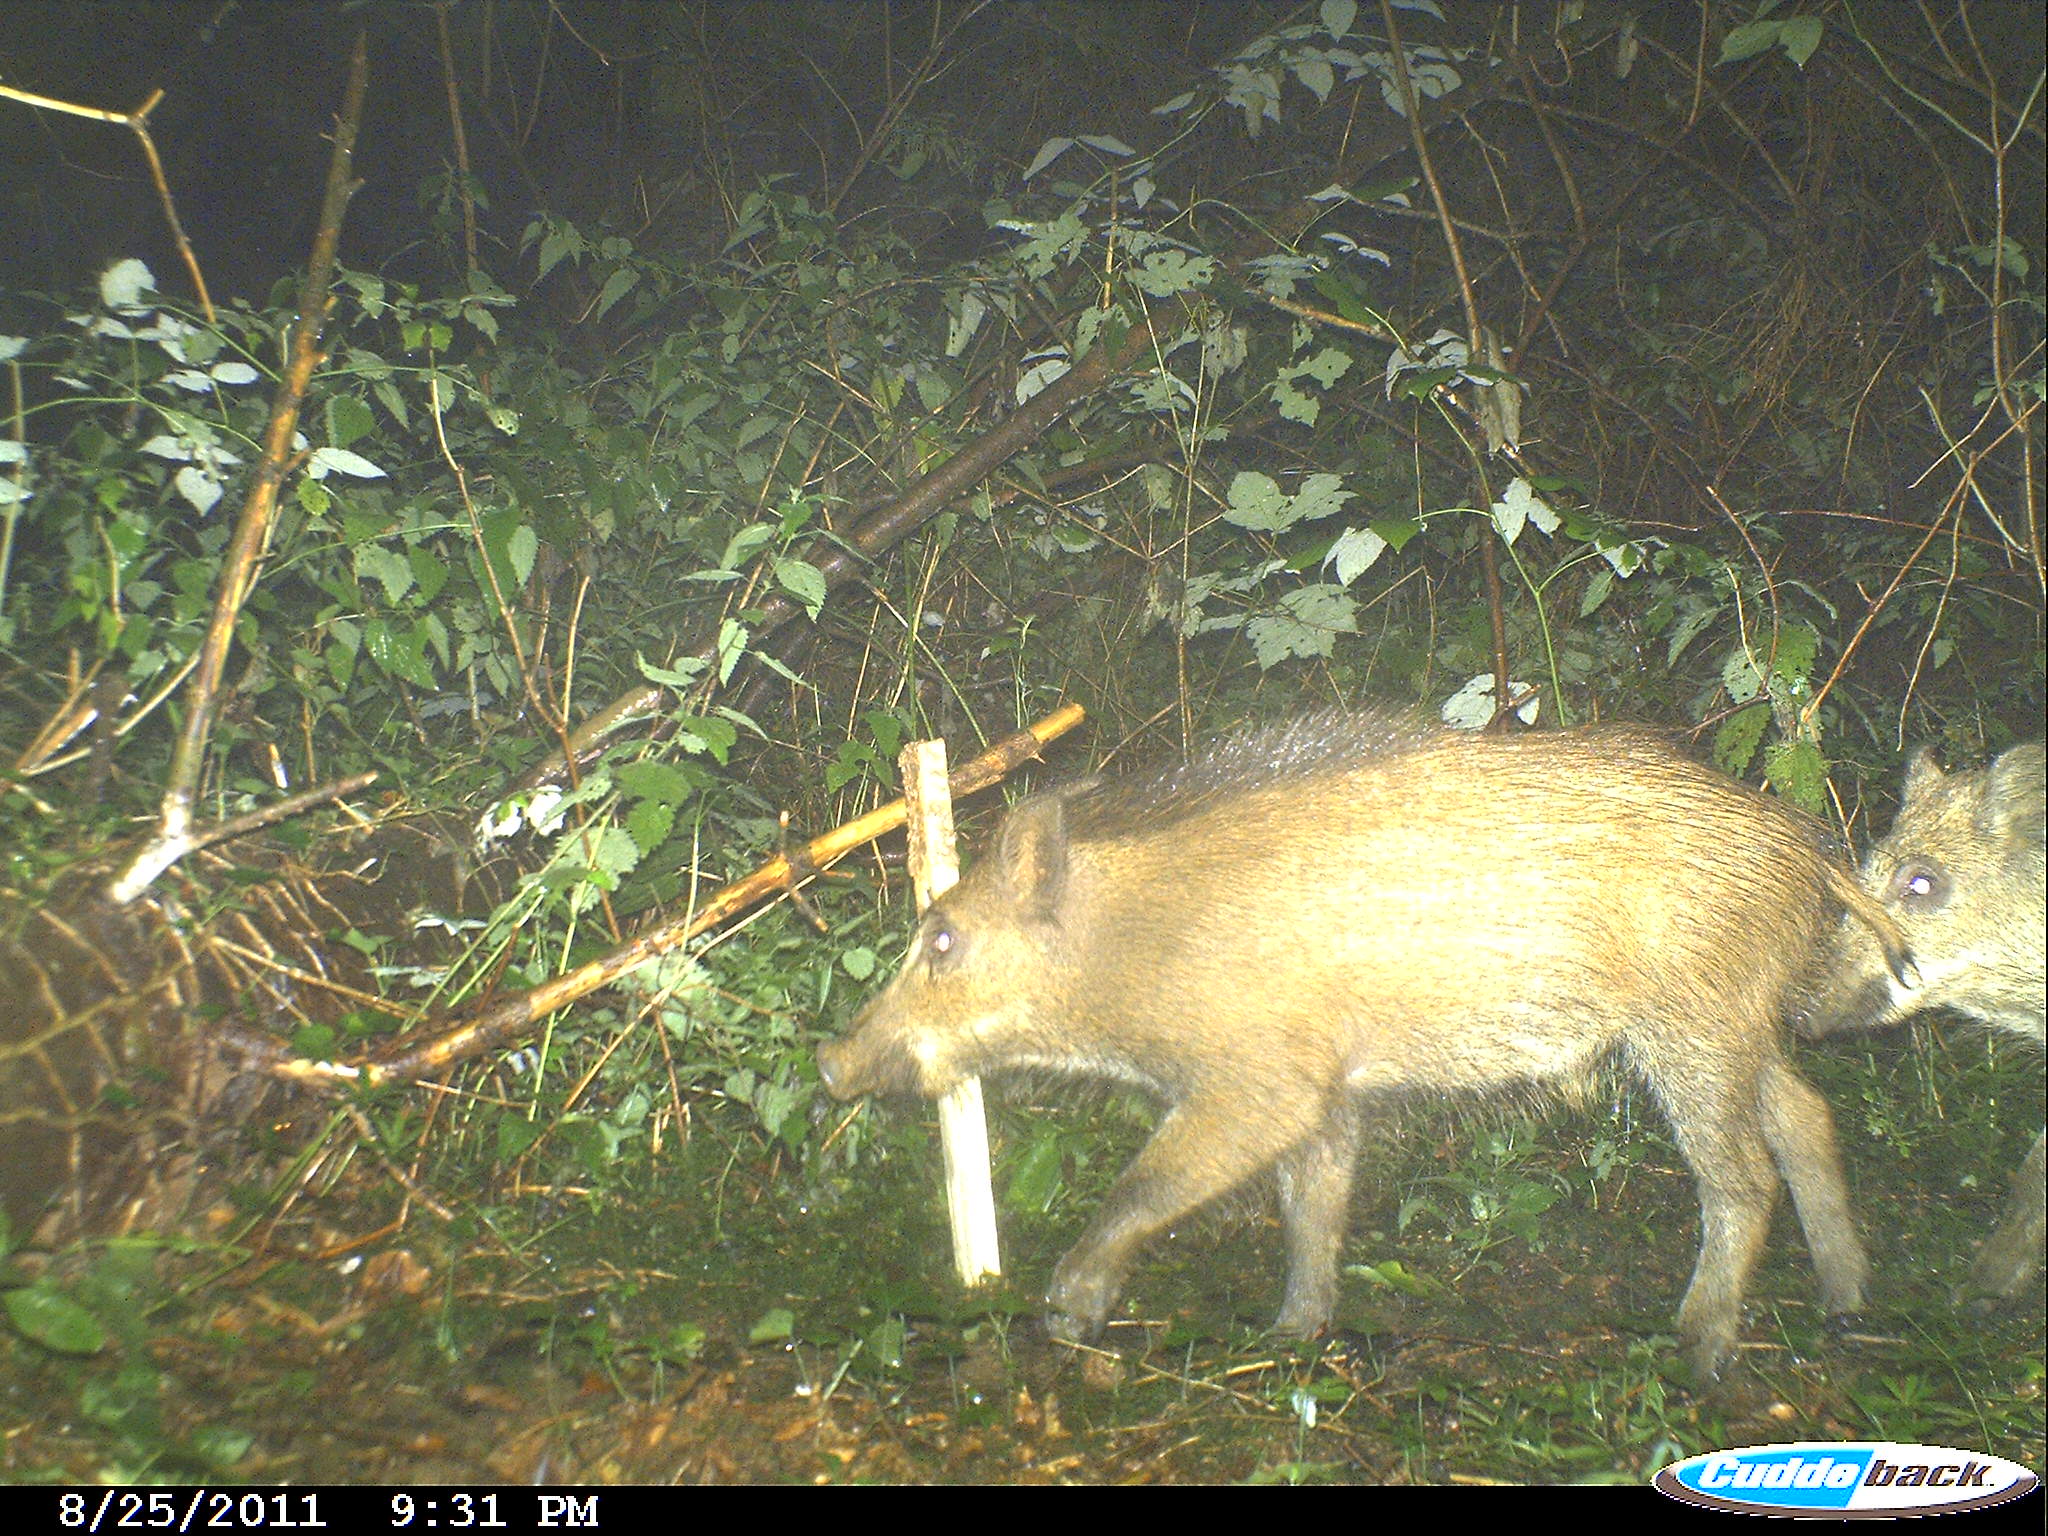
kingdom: Animalia
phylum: Chordata
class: Mammalia
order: Artiodactyla
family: Suidae
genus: Sus
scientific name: Sus scrofa
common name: Wild boar
